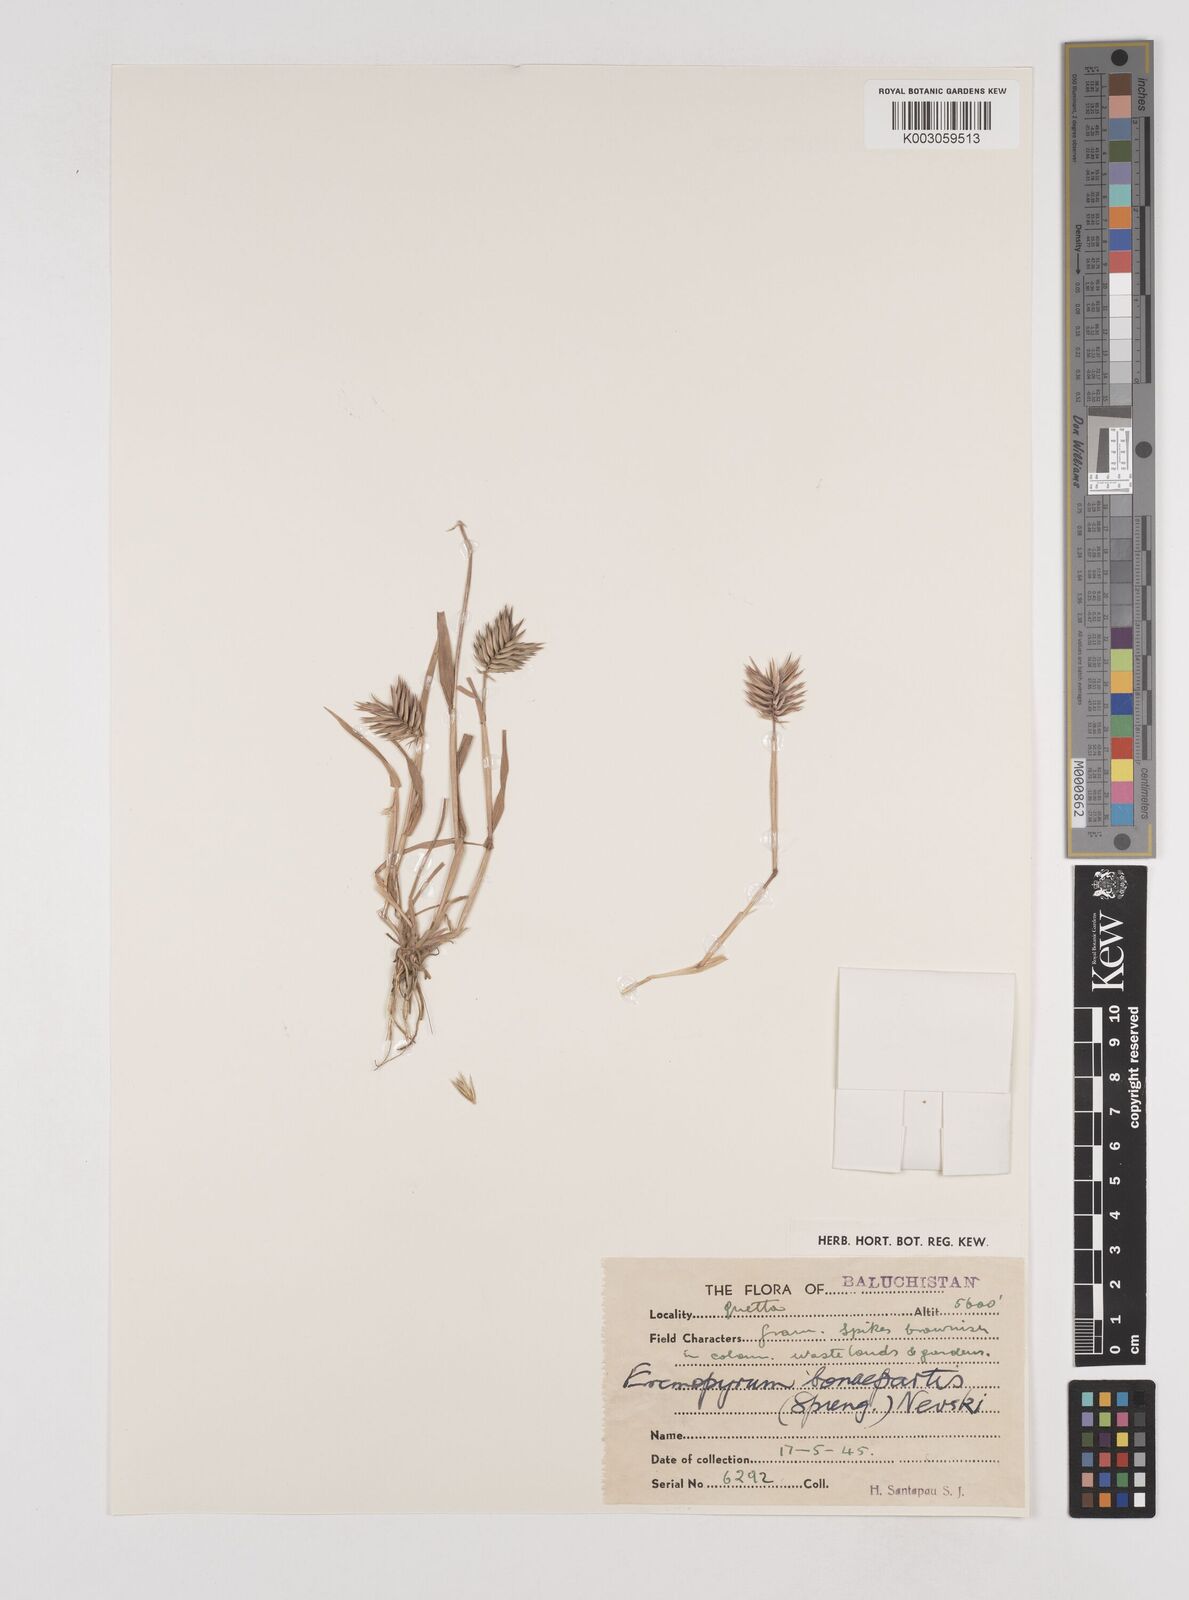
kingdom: Plantae
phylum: Tracheophyta
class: Liliopsida
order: Poales
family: Poaceae
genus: Eremopyrum
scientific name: Eremopyrum bonaepartis
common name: Tapertip false wheatgrass
